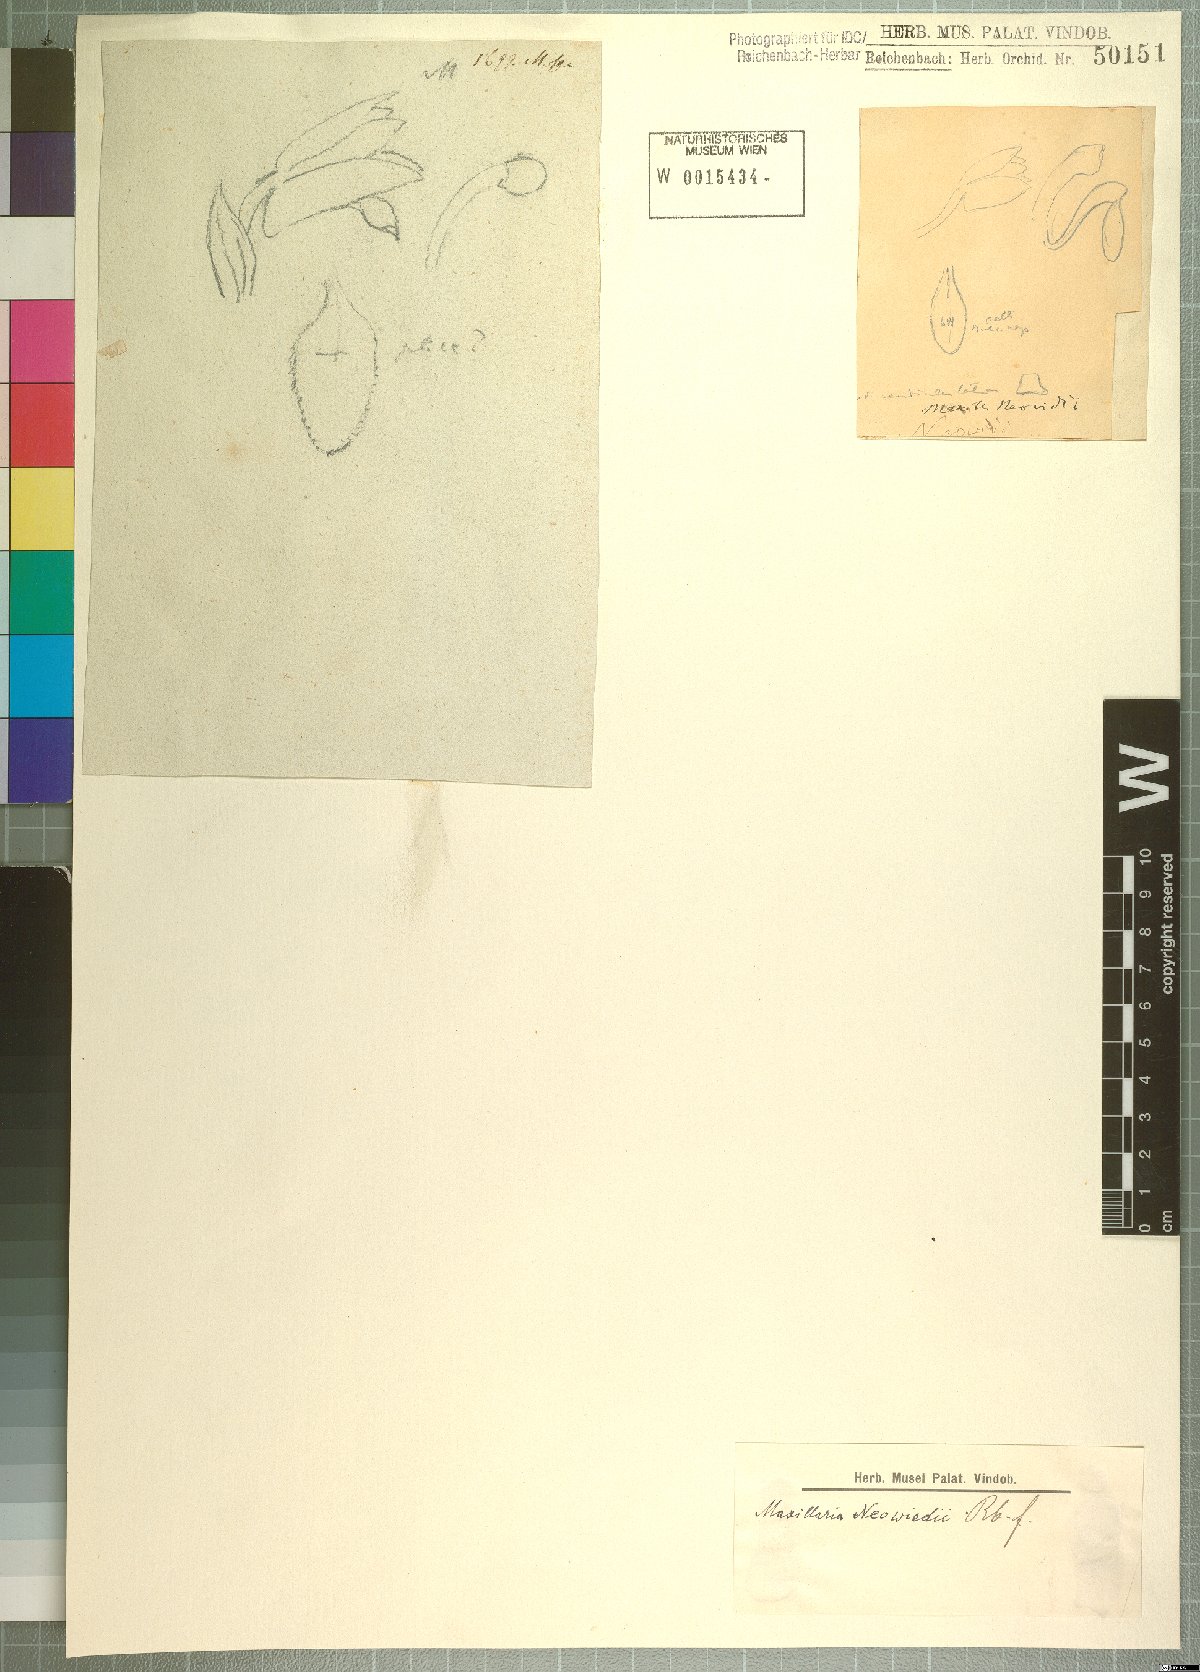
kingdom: Plantae
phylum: Tracheophyta
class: Liliopsida
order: Asparagales
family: Orchidaceae
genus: Maxillaria
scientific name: Maxillaria neowiedii
